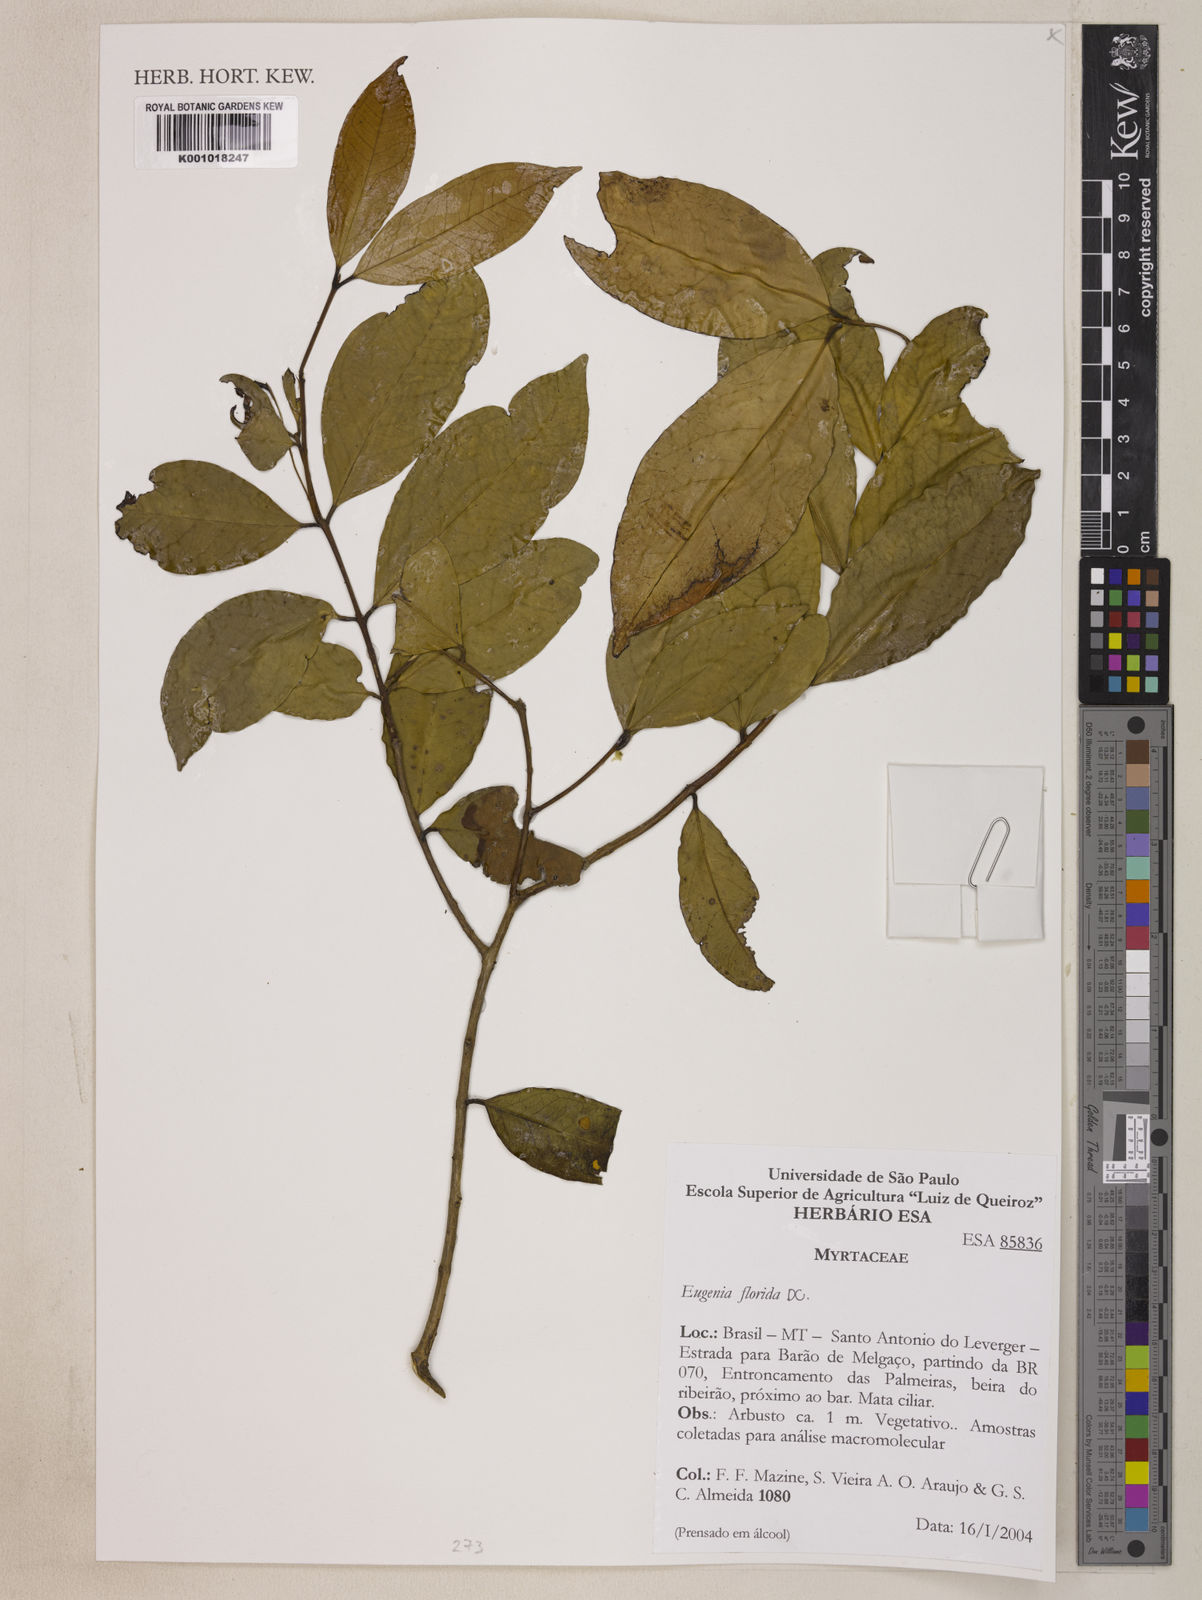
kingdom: Plantae
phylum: Tracheophyta
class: Magnoliopsida
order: Myrtales
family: Myrtaceae
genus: Eugenia
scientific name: Eugenia florida
